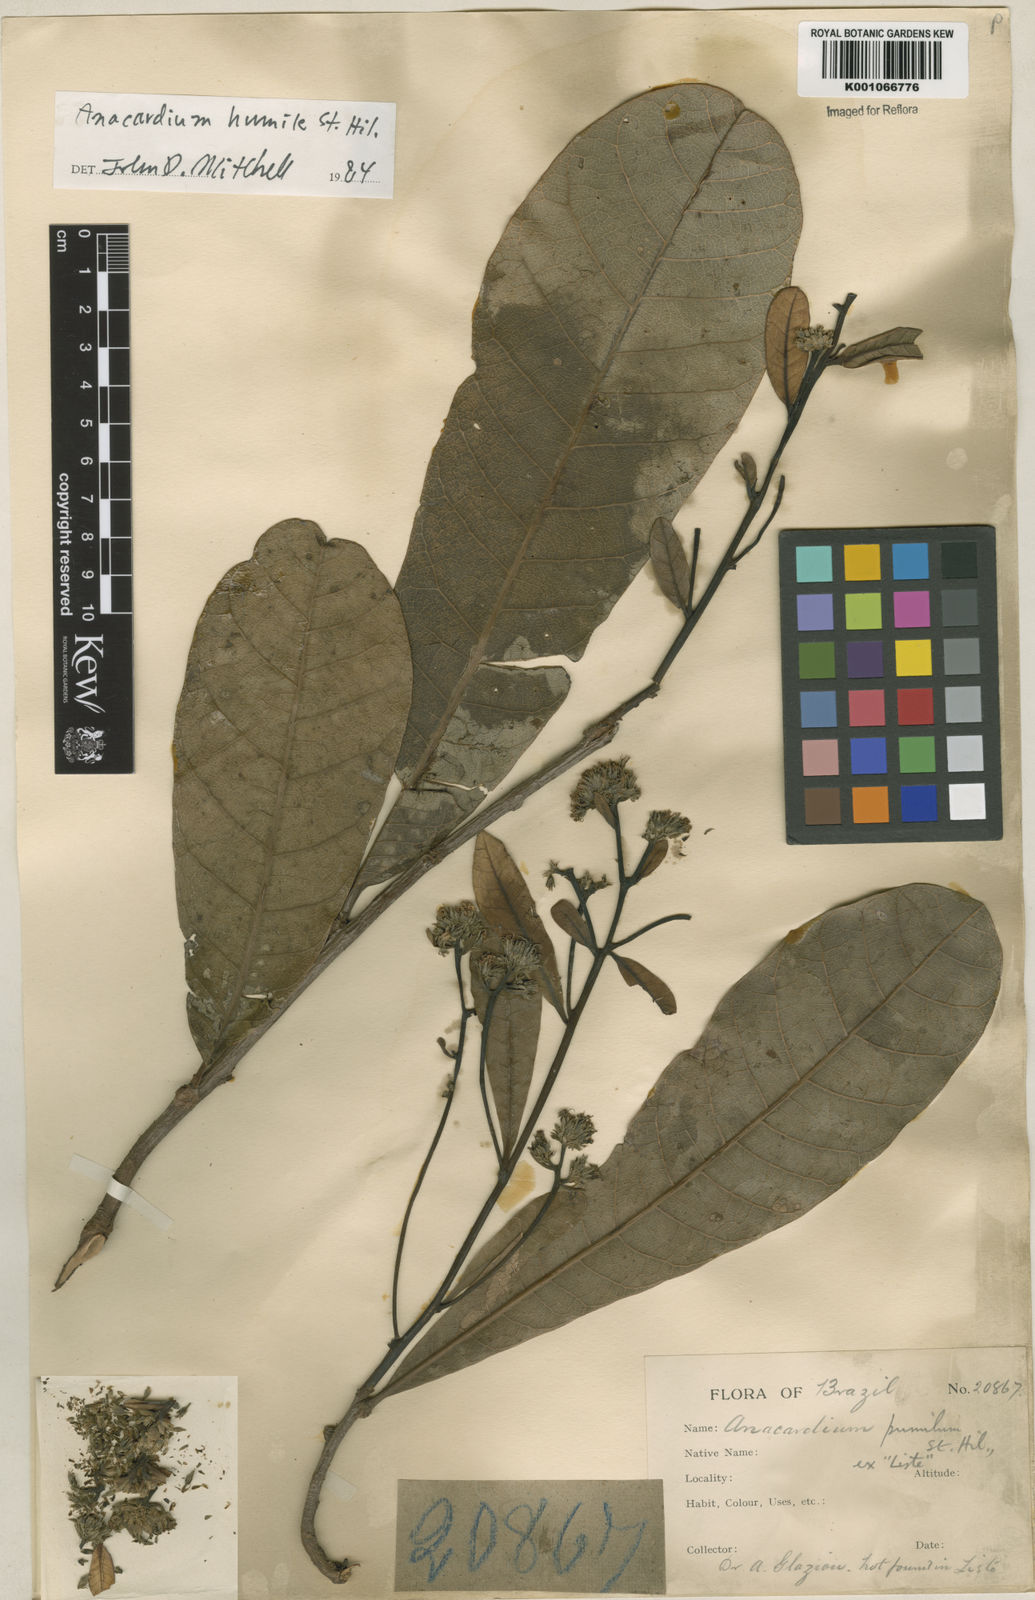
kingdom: Plantae
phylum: Tracheophyta
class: Magnoliopsida
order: Sapindales
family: Anacardiaceae
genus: Anacardium
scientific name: Anacardium humile
